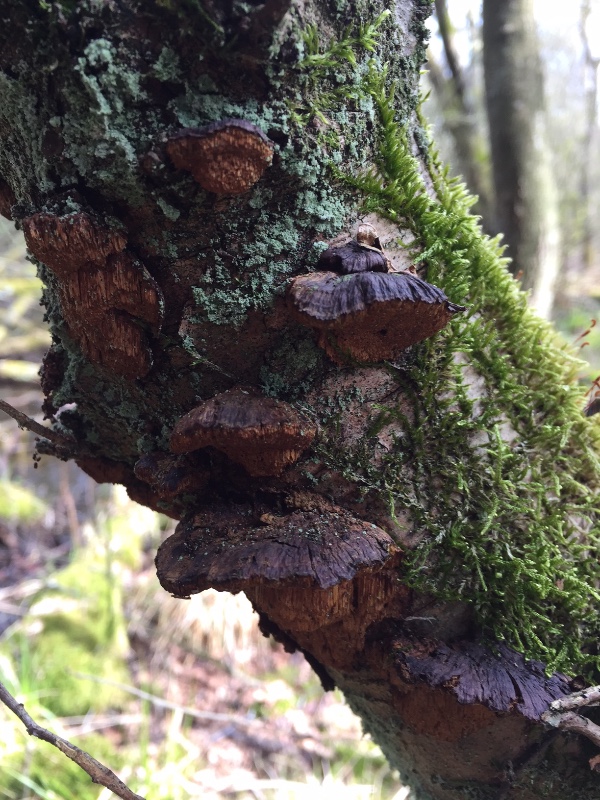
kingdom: Fungi
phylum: Basidiomycota
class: Agaricomycetes
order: Hymenochaetales
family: Hymenochaetaceae
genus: Xanthoporia
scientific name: Xanthoporia radiata
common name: elle-spejlporesvamp
